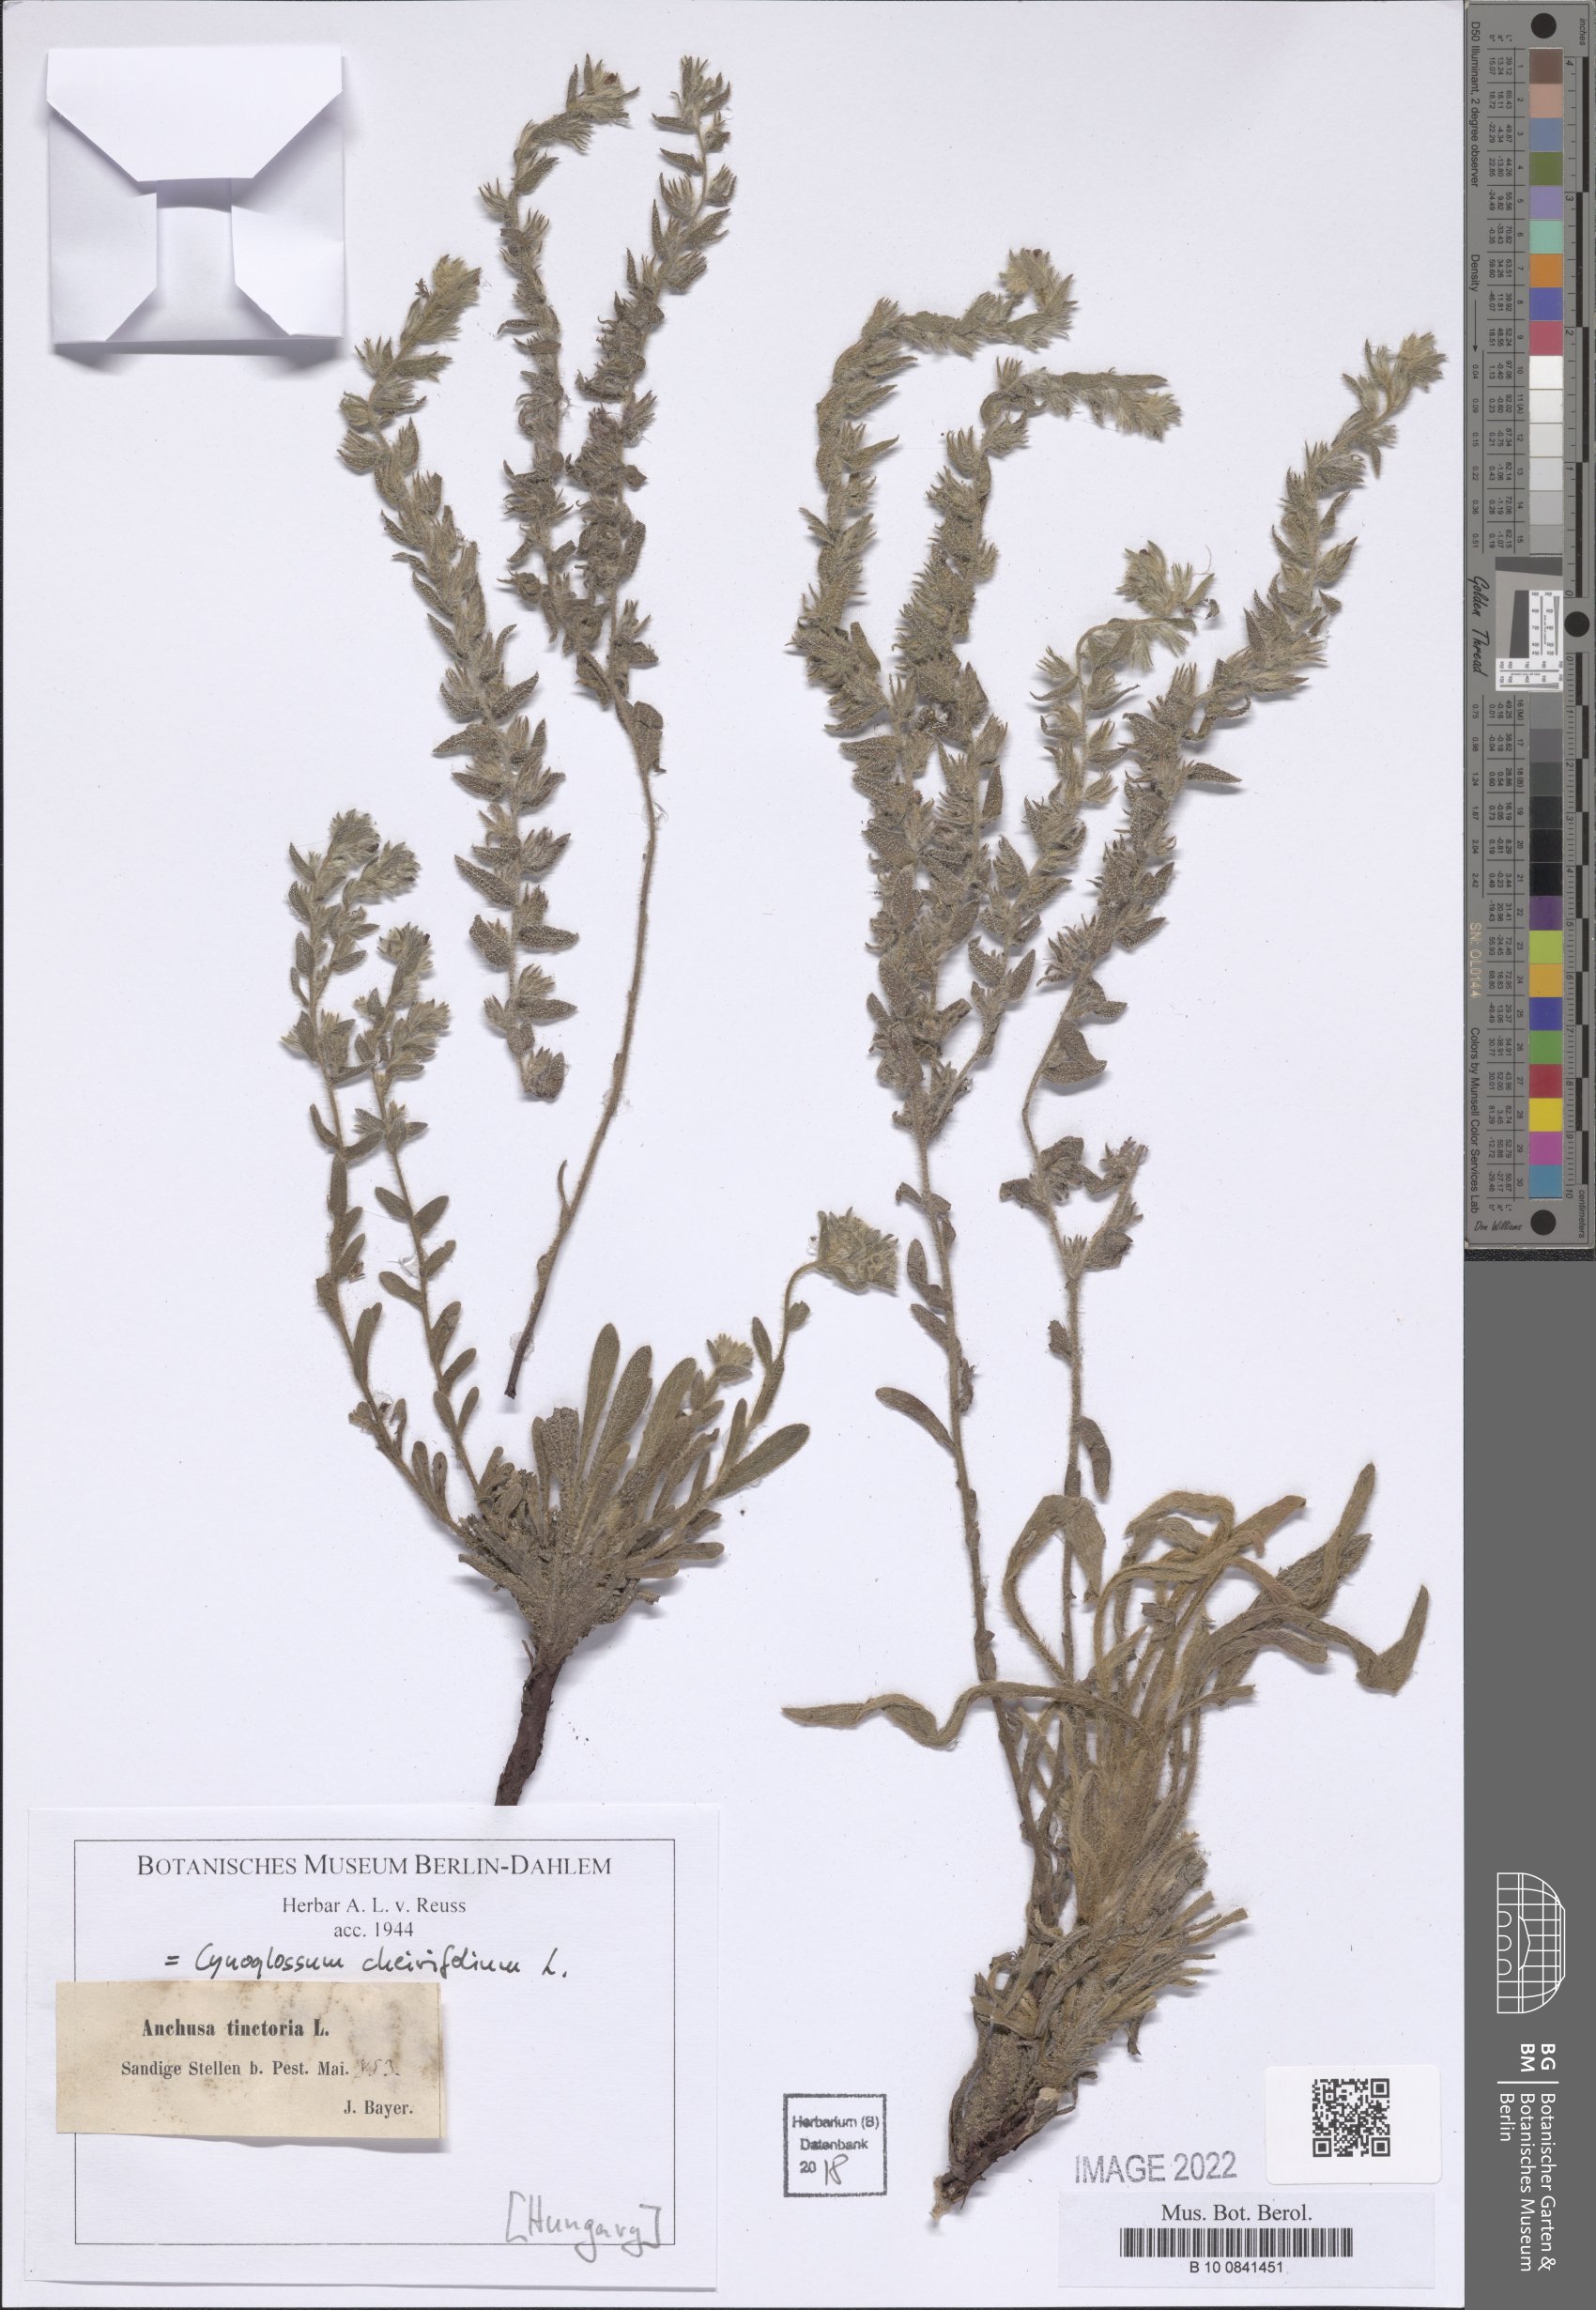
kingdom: Plantae
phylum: Tracheophyta
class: Magnoliopsida
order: Boraginales
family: Boraginaceae
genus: Pardoglossum
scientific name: Pardoglossum cheirifolium
